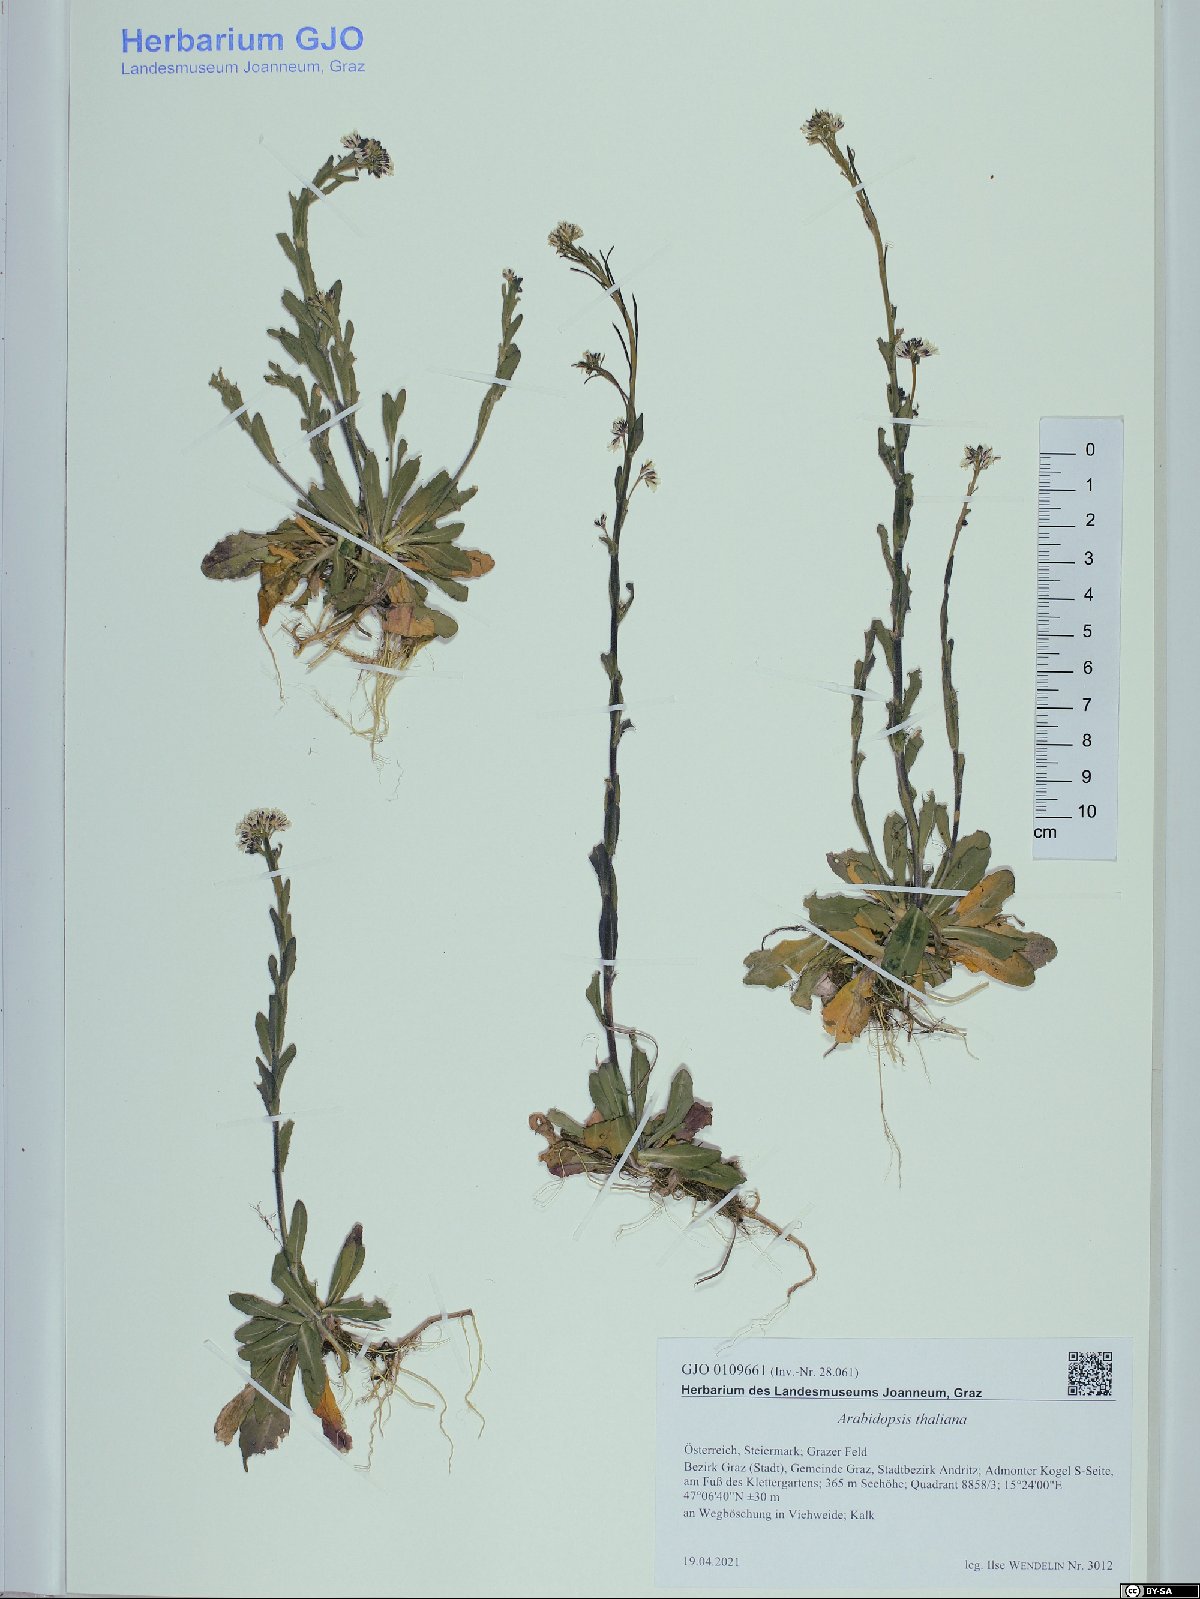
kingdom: Plantae
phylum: Tracheophyta
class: Magnoliopsida
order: Brassicales
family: Brassicaceae
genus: Arabidopsis
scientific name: Arabidopsis thaliana
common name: Thale cress
